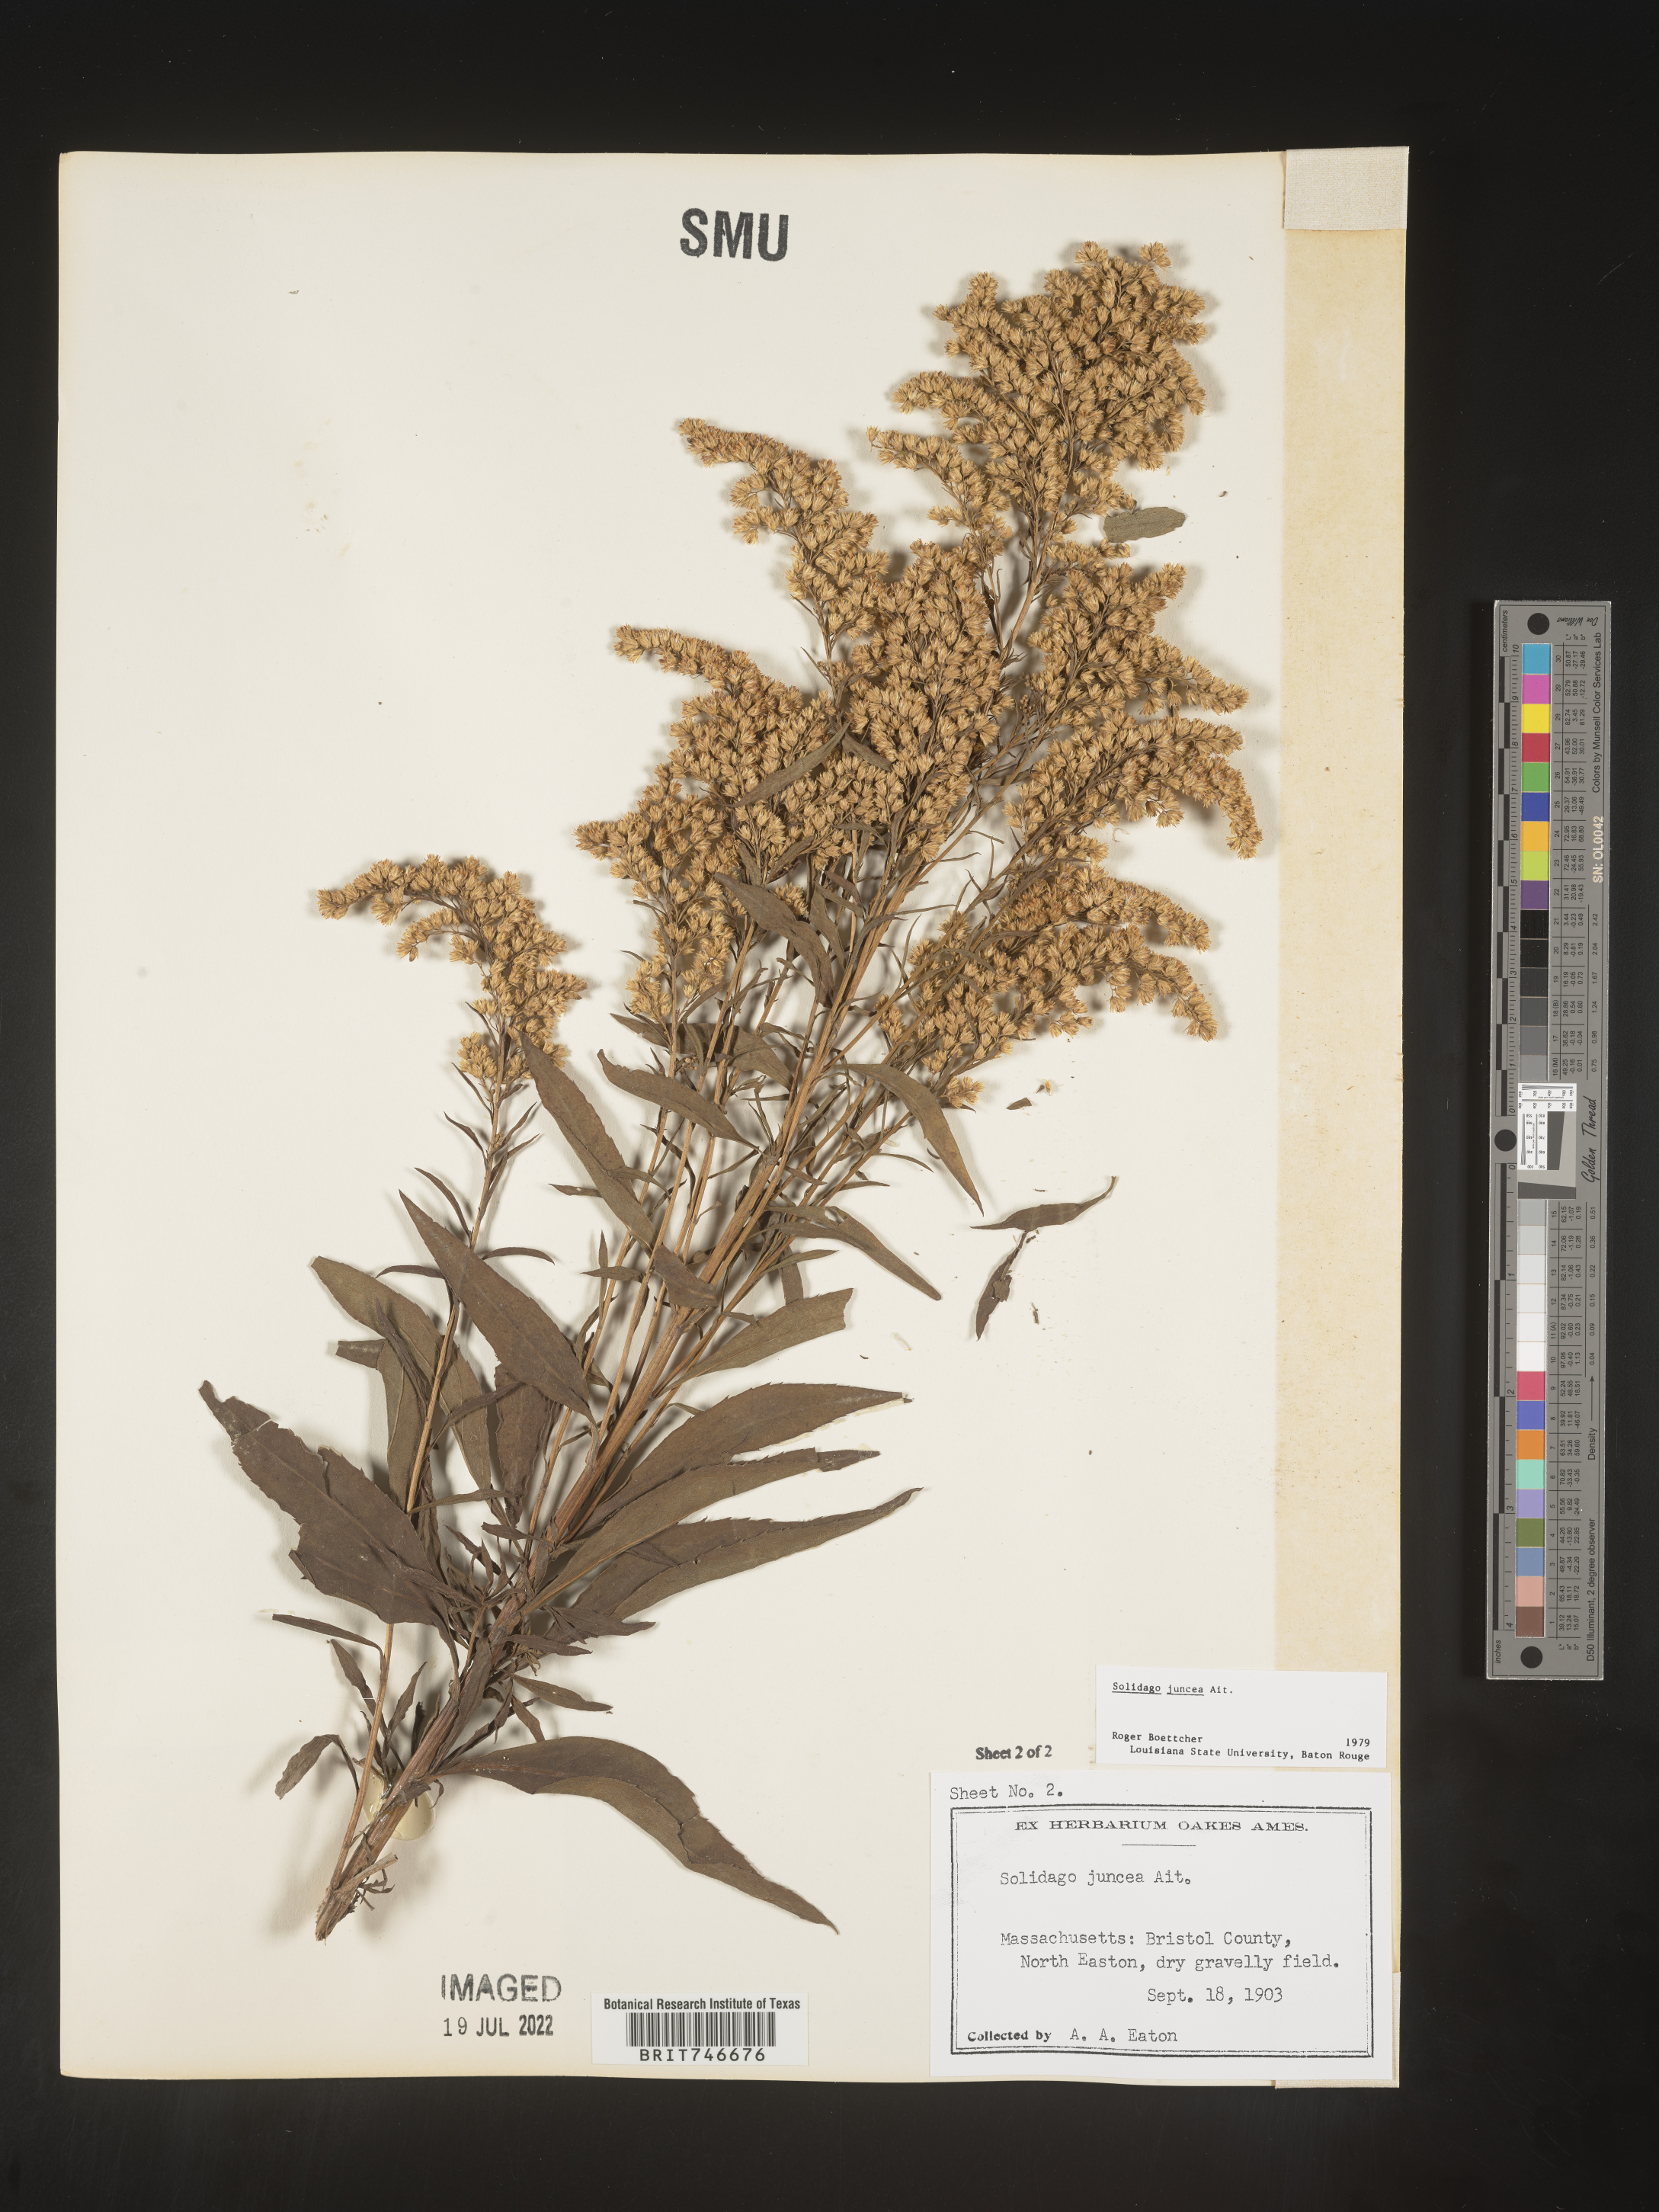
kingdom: Plantae
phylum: Tracheophyta
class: Magnoliopsida
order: Asterales
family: Asteraceae
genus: Solidago
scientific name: Solidago juncea
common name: Early goldenrod
